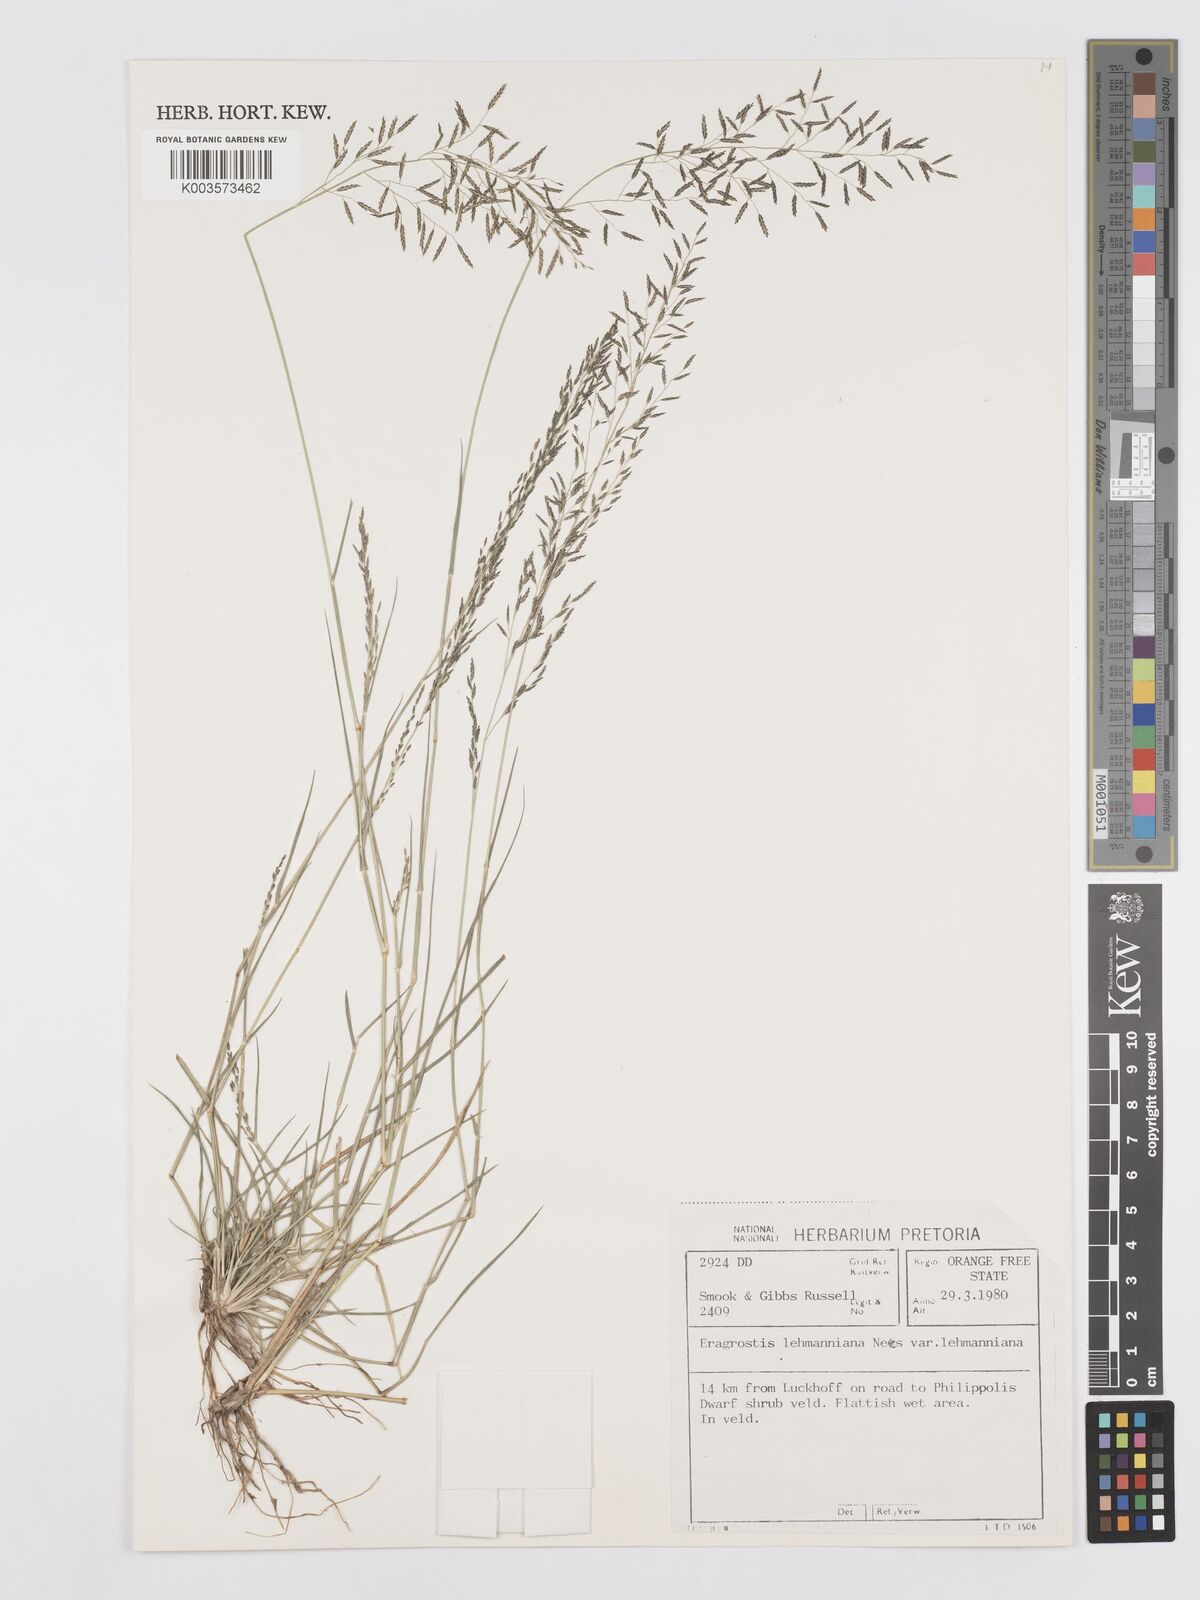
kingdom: Plantae
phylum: Tracheophyta
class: Liliopsida
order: Poales
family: Poaceae
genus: Eragrostis
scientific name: Eragrostis lehmanniana
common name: Lehmann lovegrass
